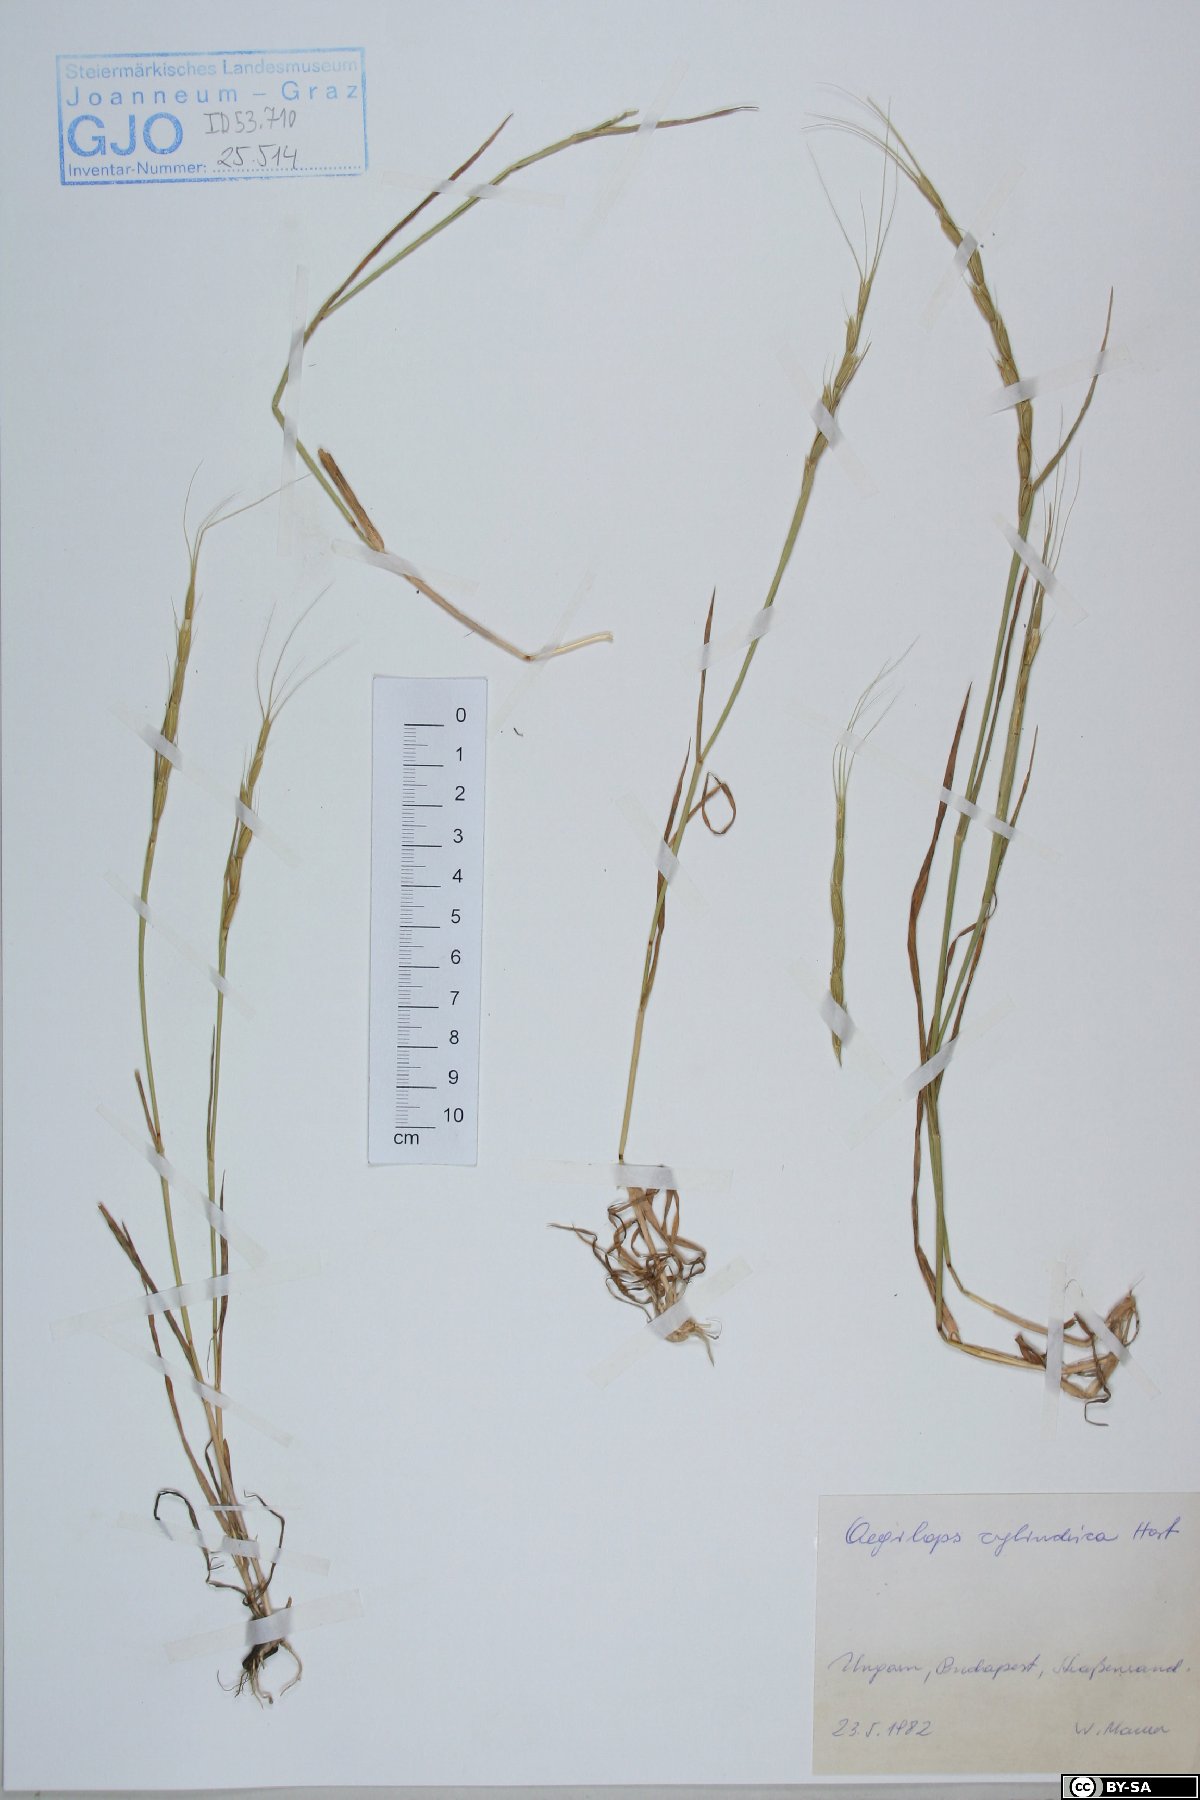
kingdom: Plantae
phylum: Tracheophyta
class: Liliopsida
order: Poales
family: Poaceae
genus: Aegilops
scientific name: Aegilops cylindrica
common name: Jointed goatgrass
